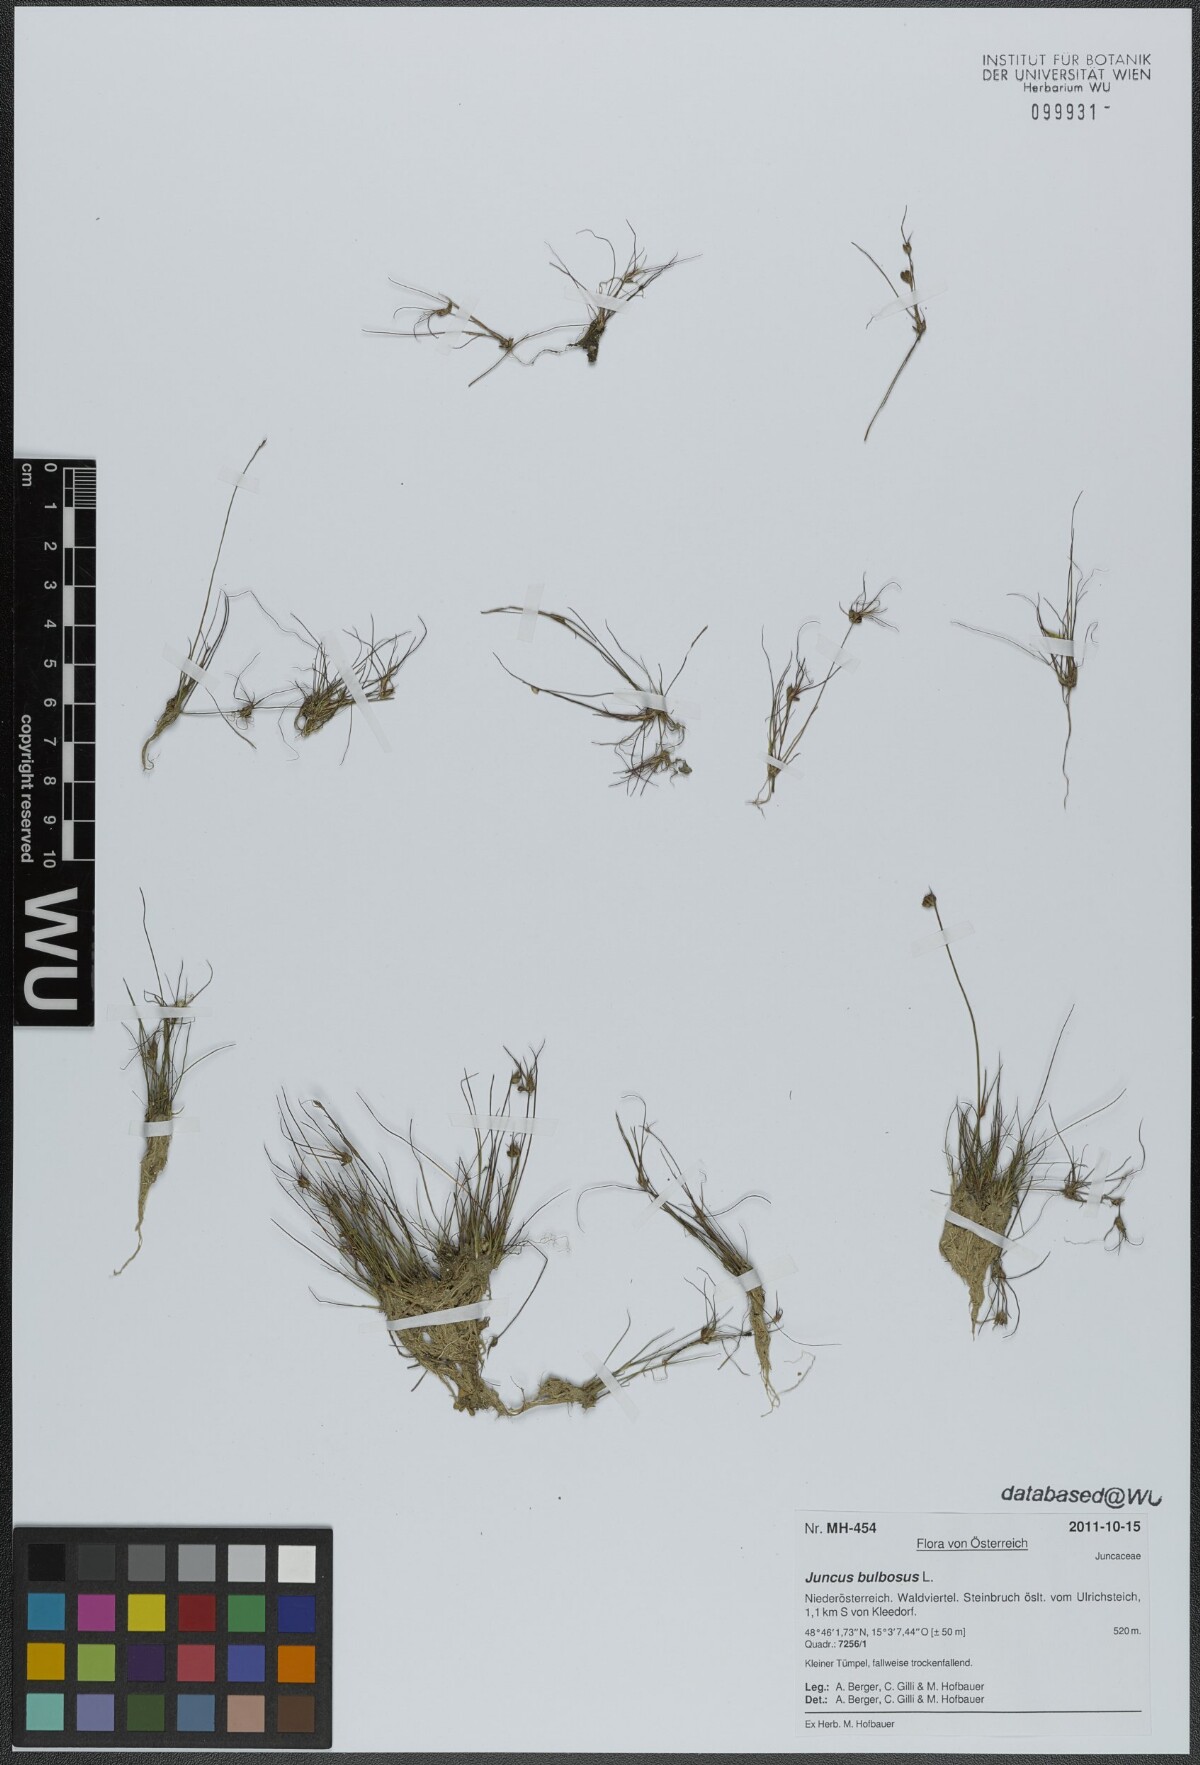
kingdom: Plantae
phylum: Tracheophyta
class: Liliopsida
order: Poales
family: Juncaceae
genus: Juncus
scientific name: Juncus bulbosus
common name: Bulbous rush
